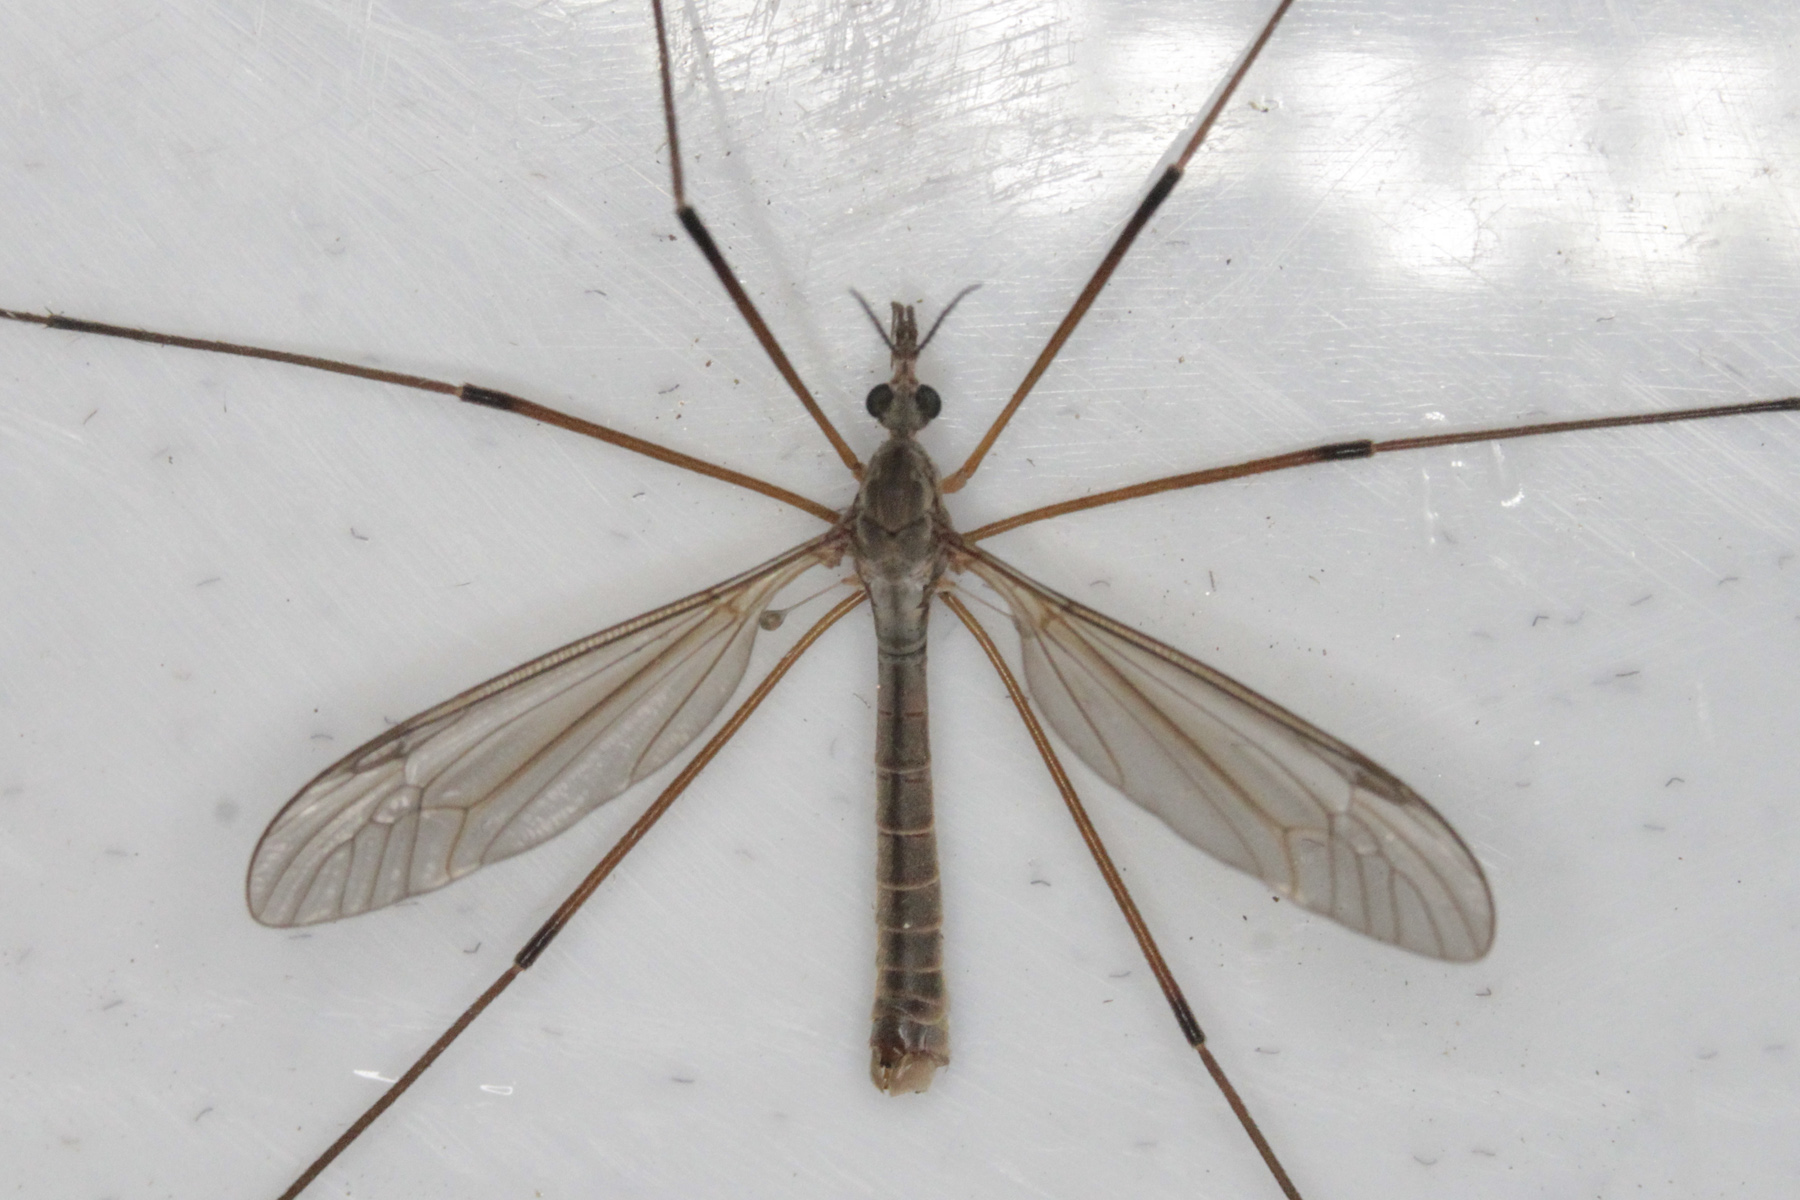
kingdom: Animalia
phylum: Arthropoda
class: Insecta
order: Diptera
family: Tipulidae
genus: Tipula
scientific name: Tipula paludosa
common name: European cranefly
